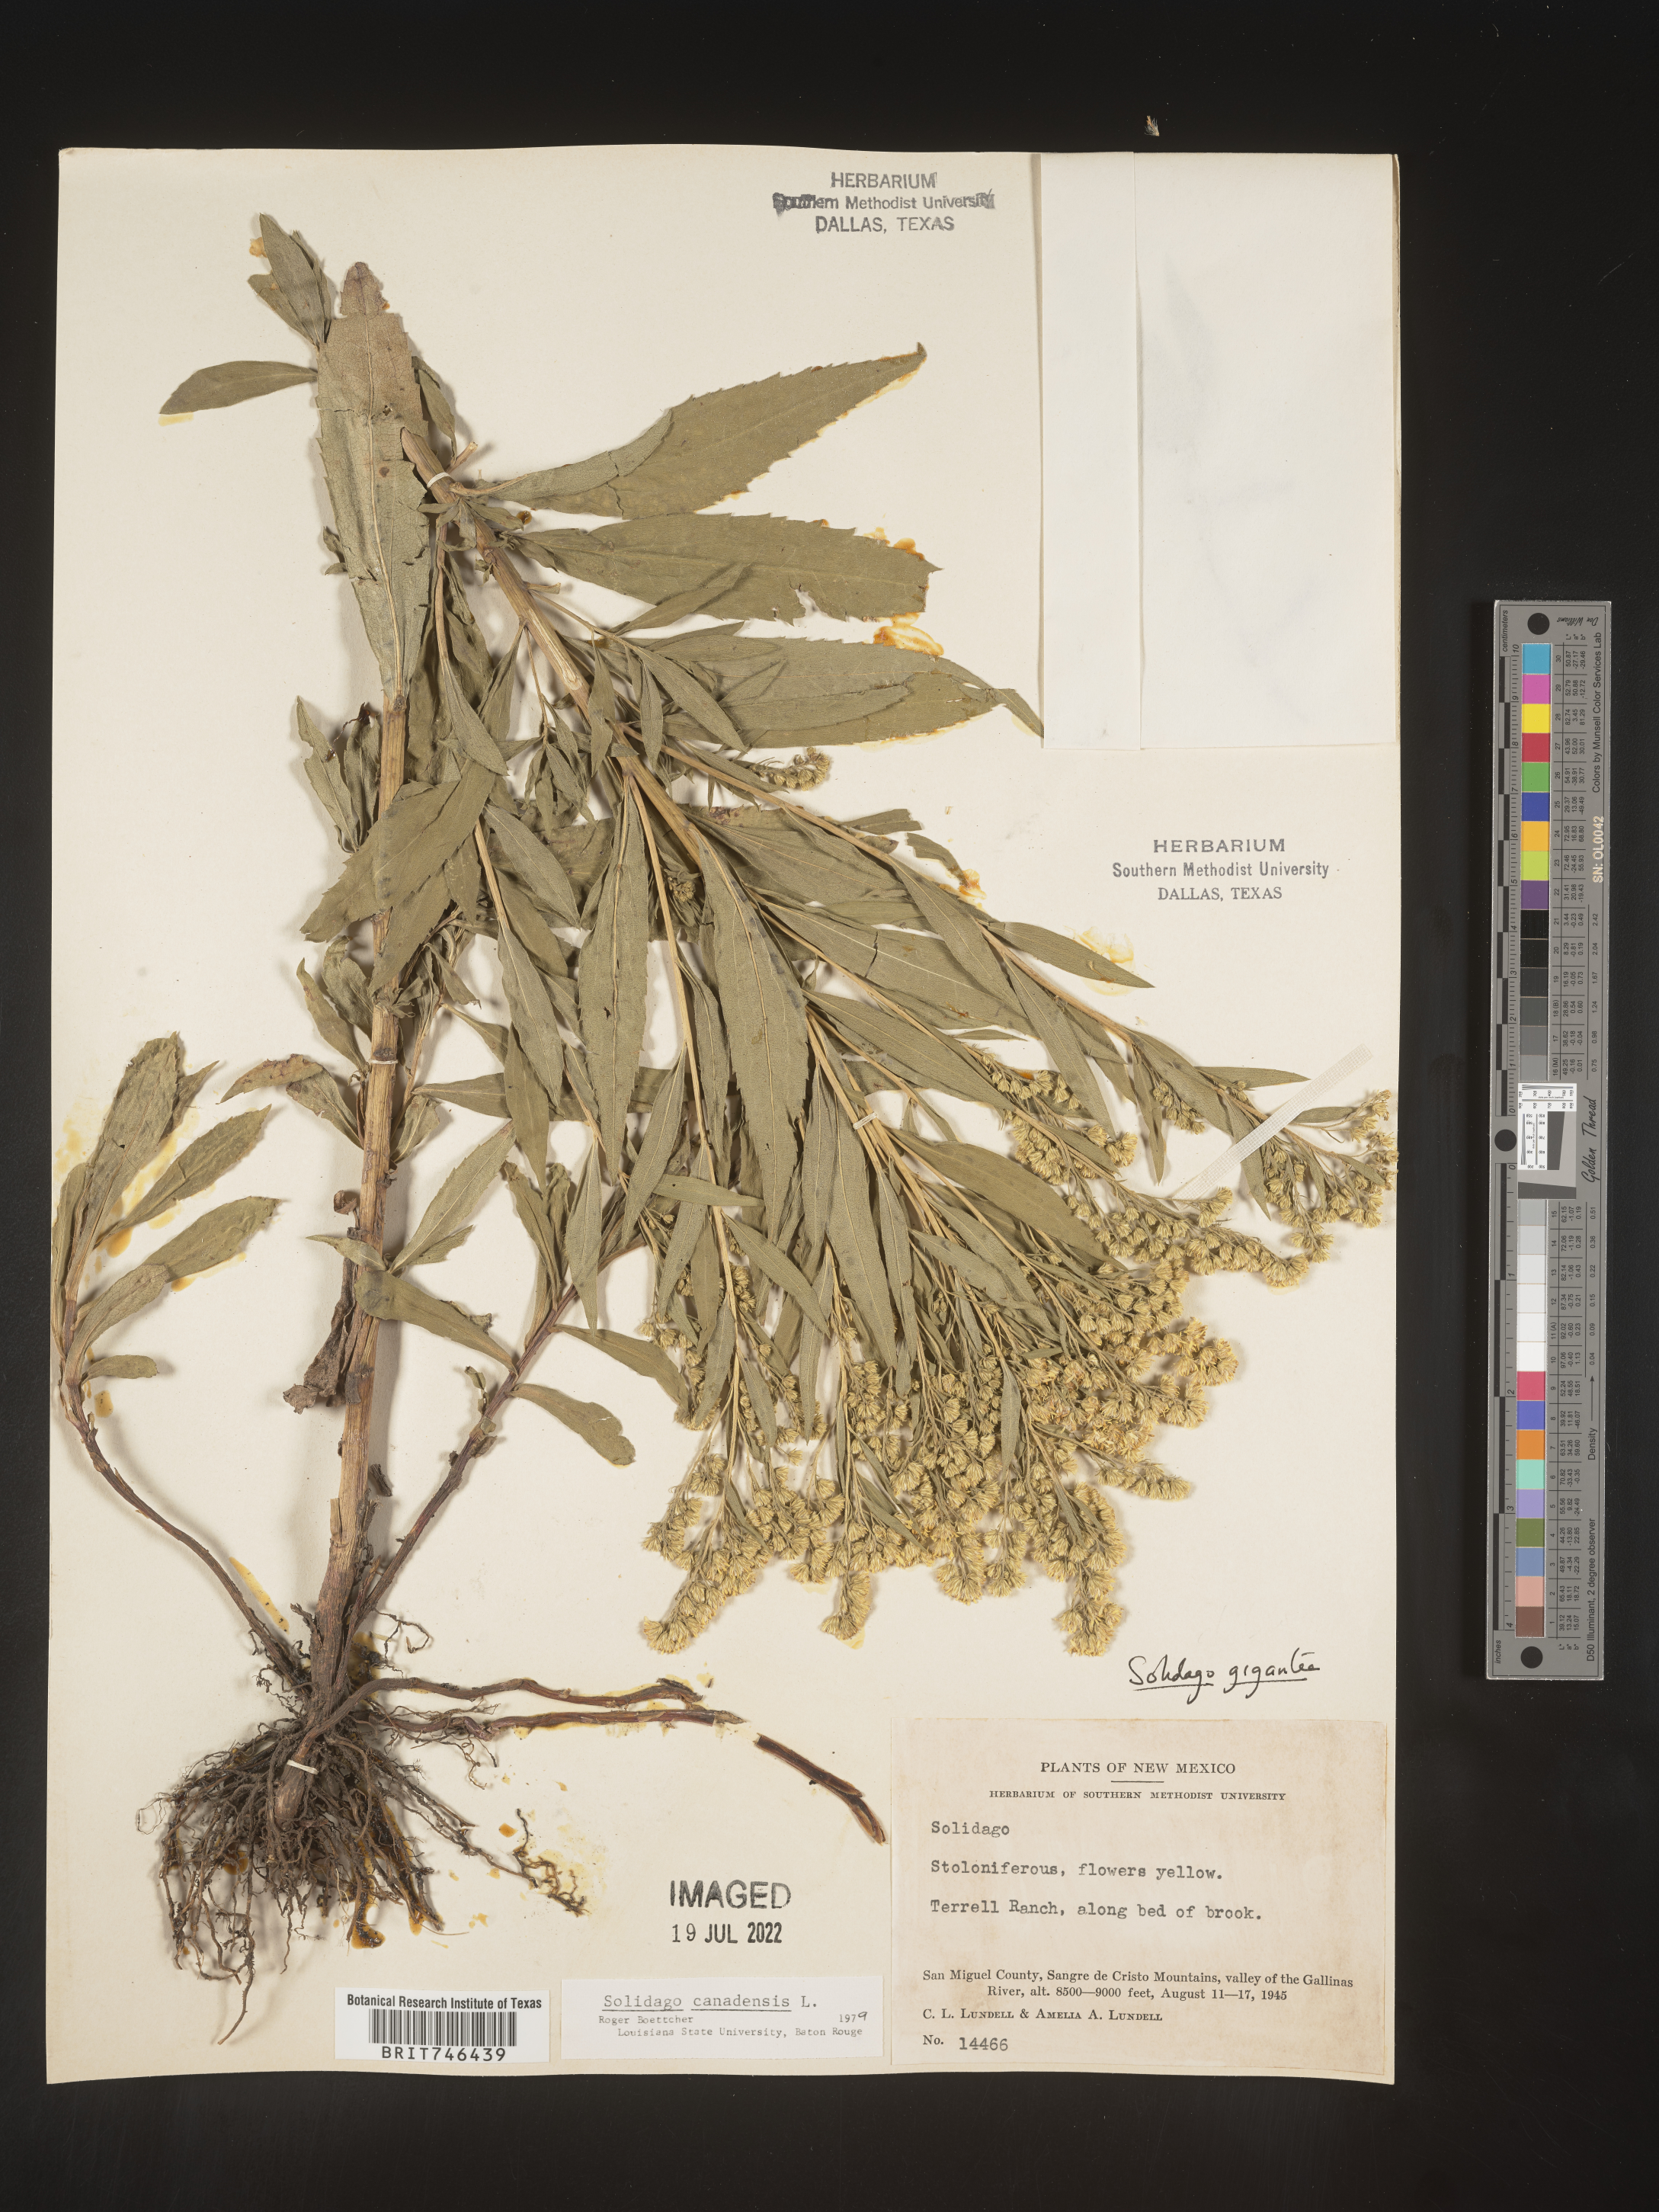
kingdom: Plantae
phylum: Tracheophyta
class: Magnoliopsida
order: Asterales
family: Asteraceae
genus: Solidago
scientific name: Solidago gigantea
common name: Giant goldenrod
